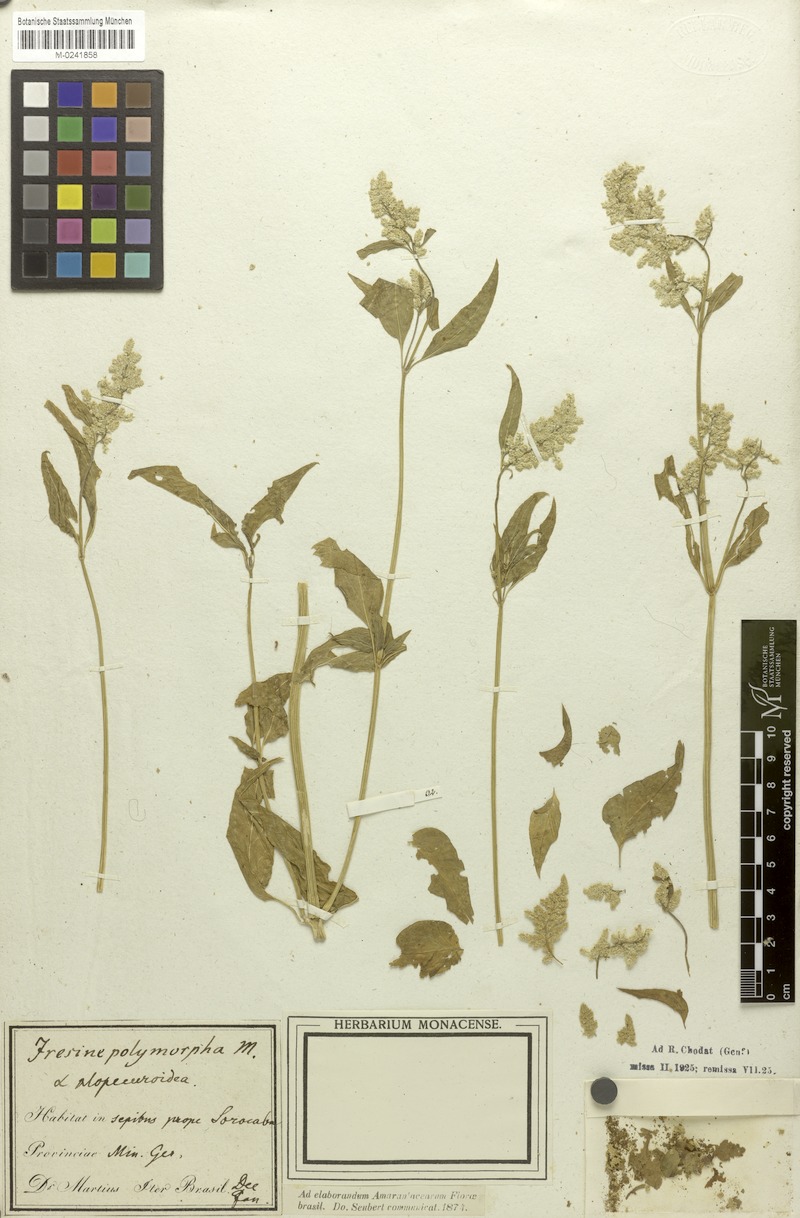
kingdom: Plantae
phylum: Tracheophyta
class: Magnoliopsida
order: Caryophyllales
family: Amaranthaceae
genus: Iresine
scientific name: Iresine diffusa
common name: Juba's-bush
